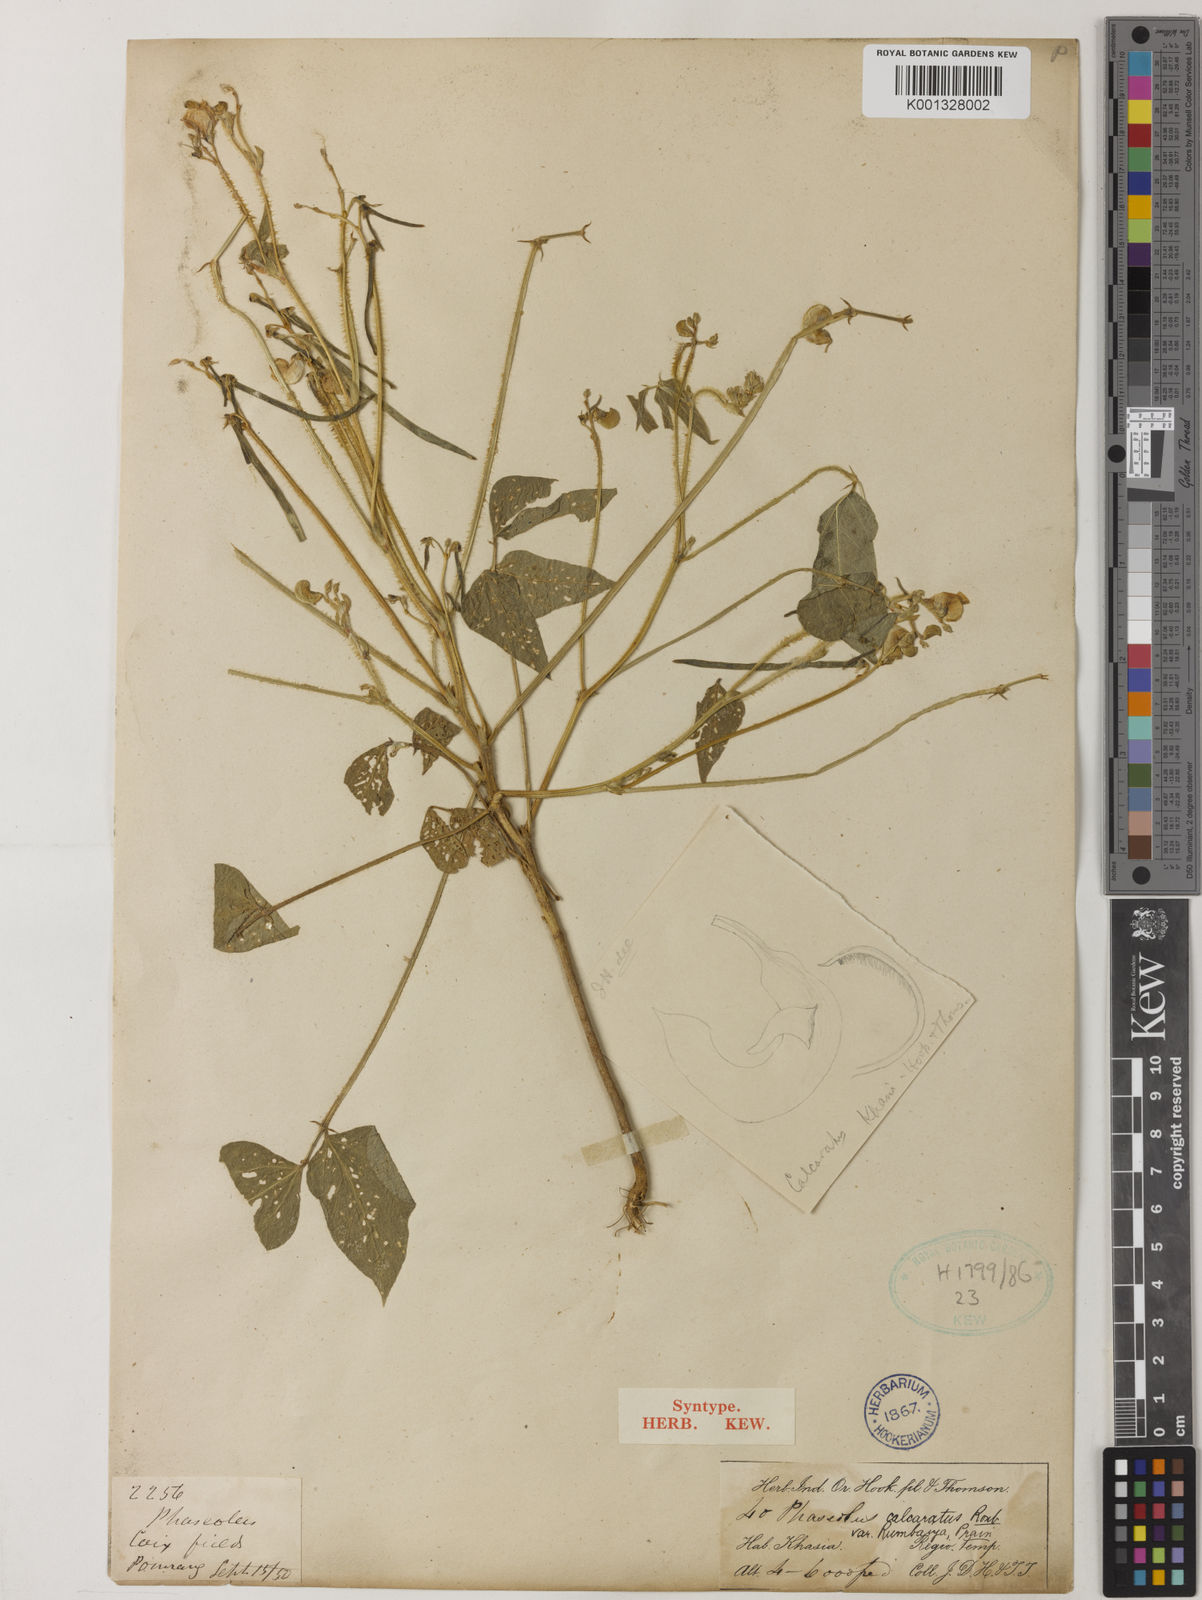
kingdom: Plantae
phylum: Tracheophyta
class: Magnoliopsida
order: Fabales
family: Fabaceae
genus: Vigna
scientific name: Vigna umbellata
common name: Oriental-bean
